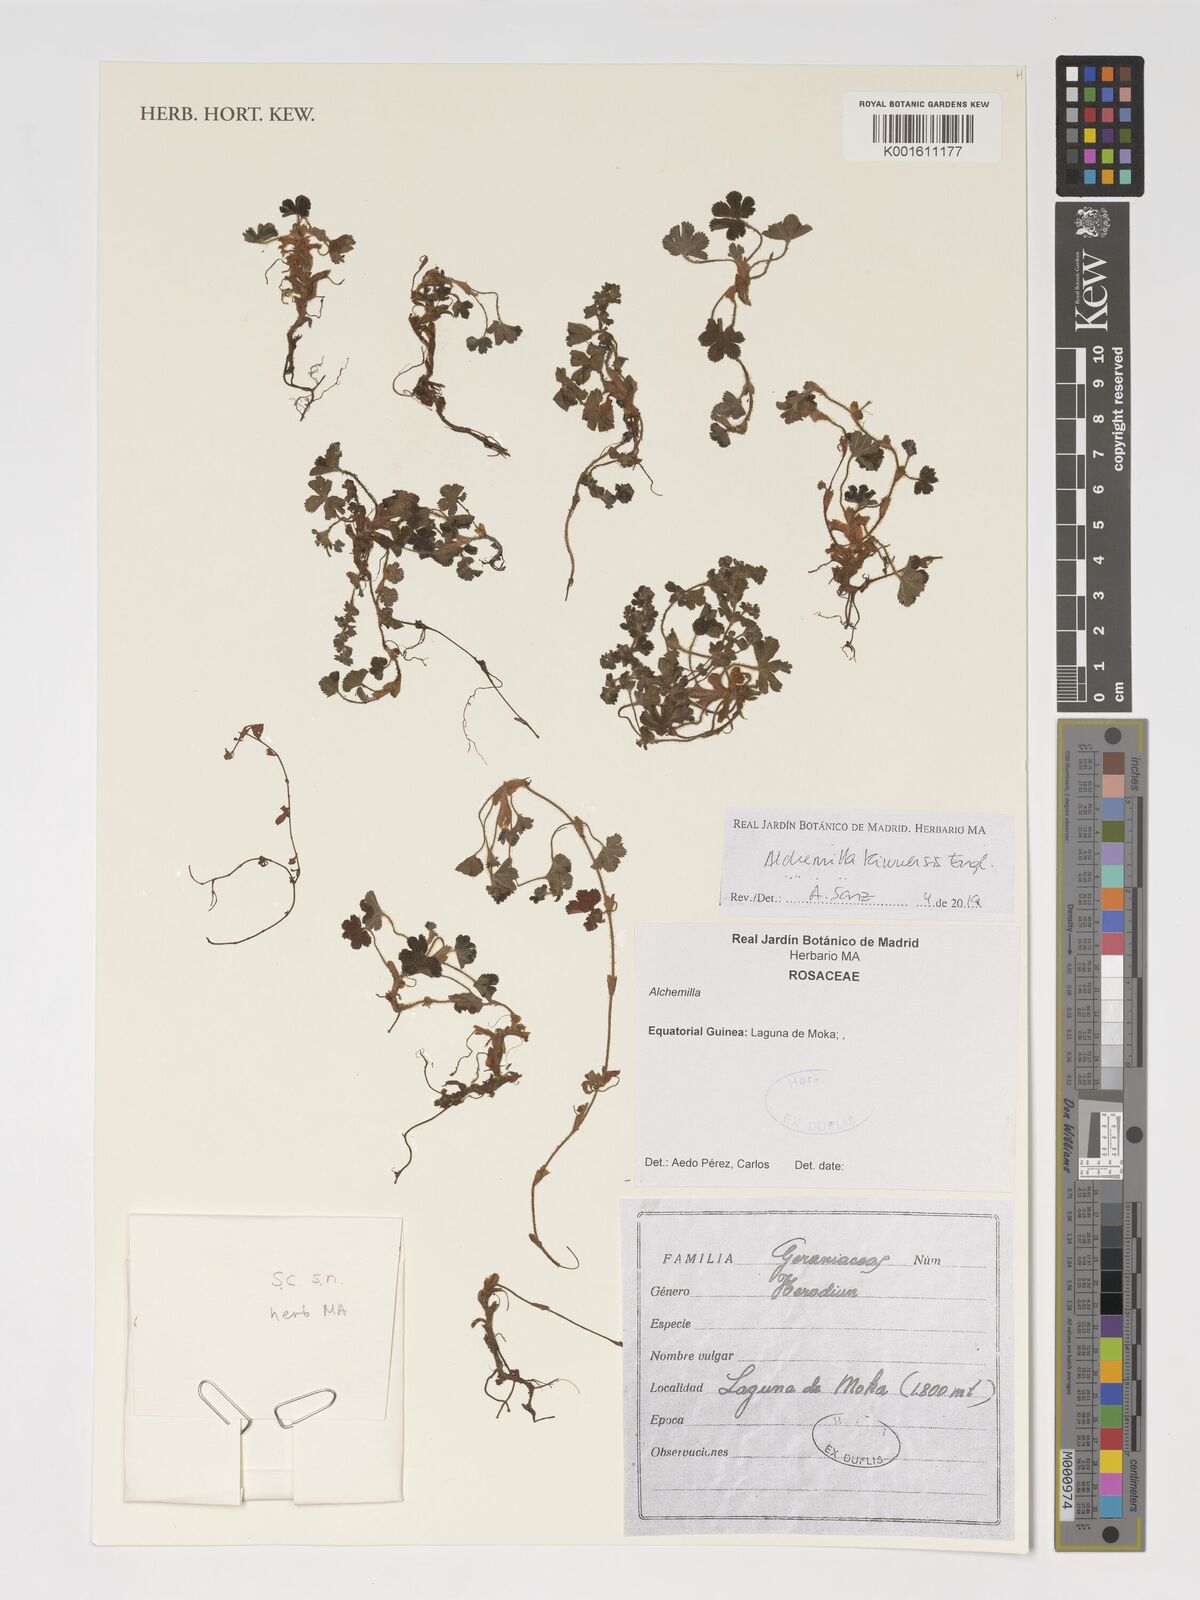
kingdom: Plantae
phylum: Tracheophyta
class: Magnoliopsida
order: Rosales
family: Rosaceae
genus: Alchemilla
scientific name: Alchemilla kiwuensis
